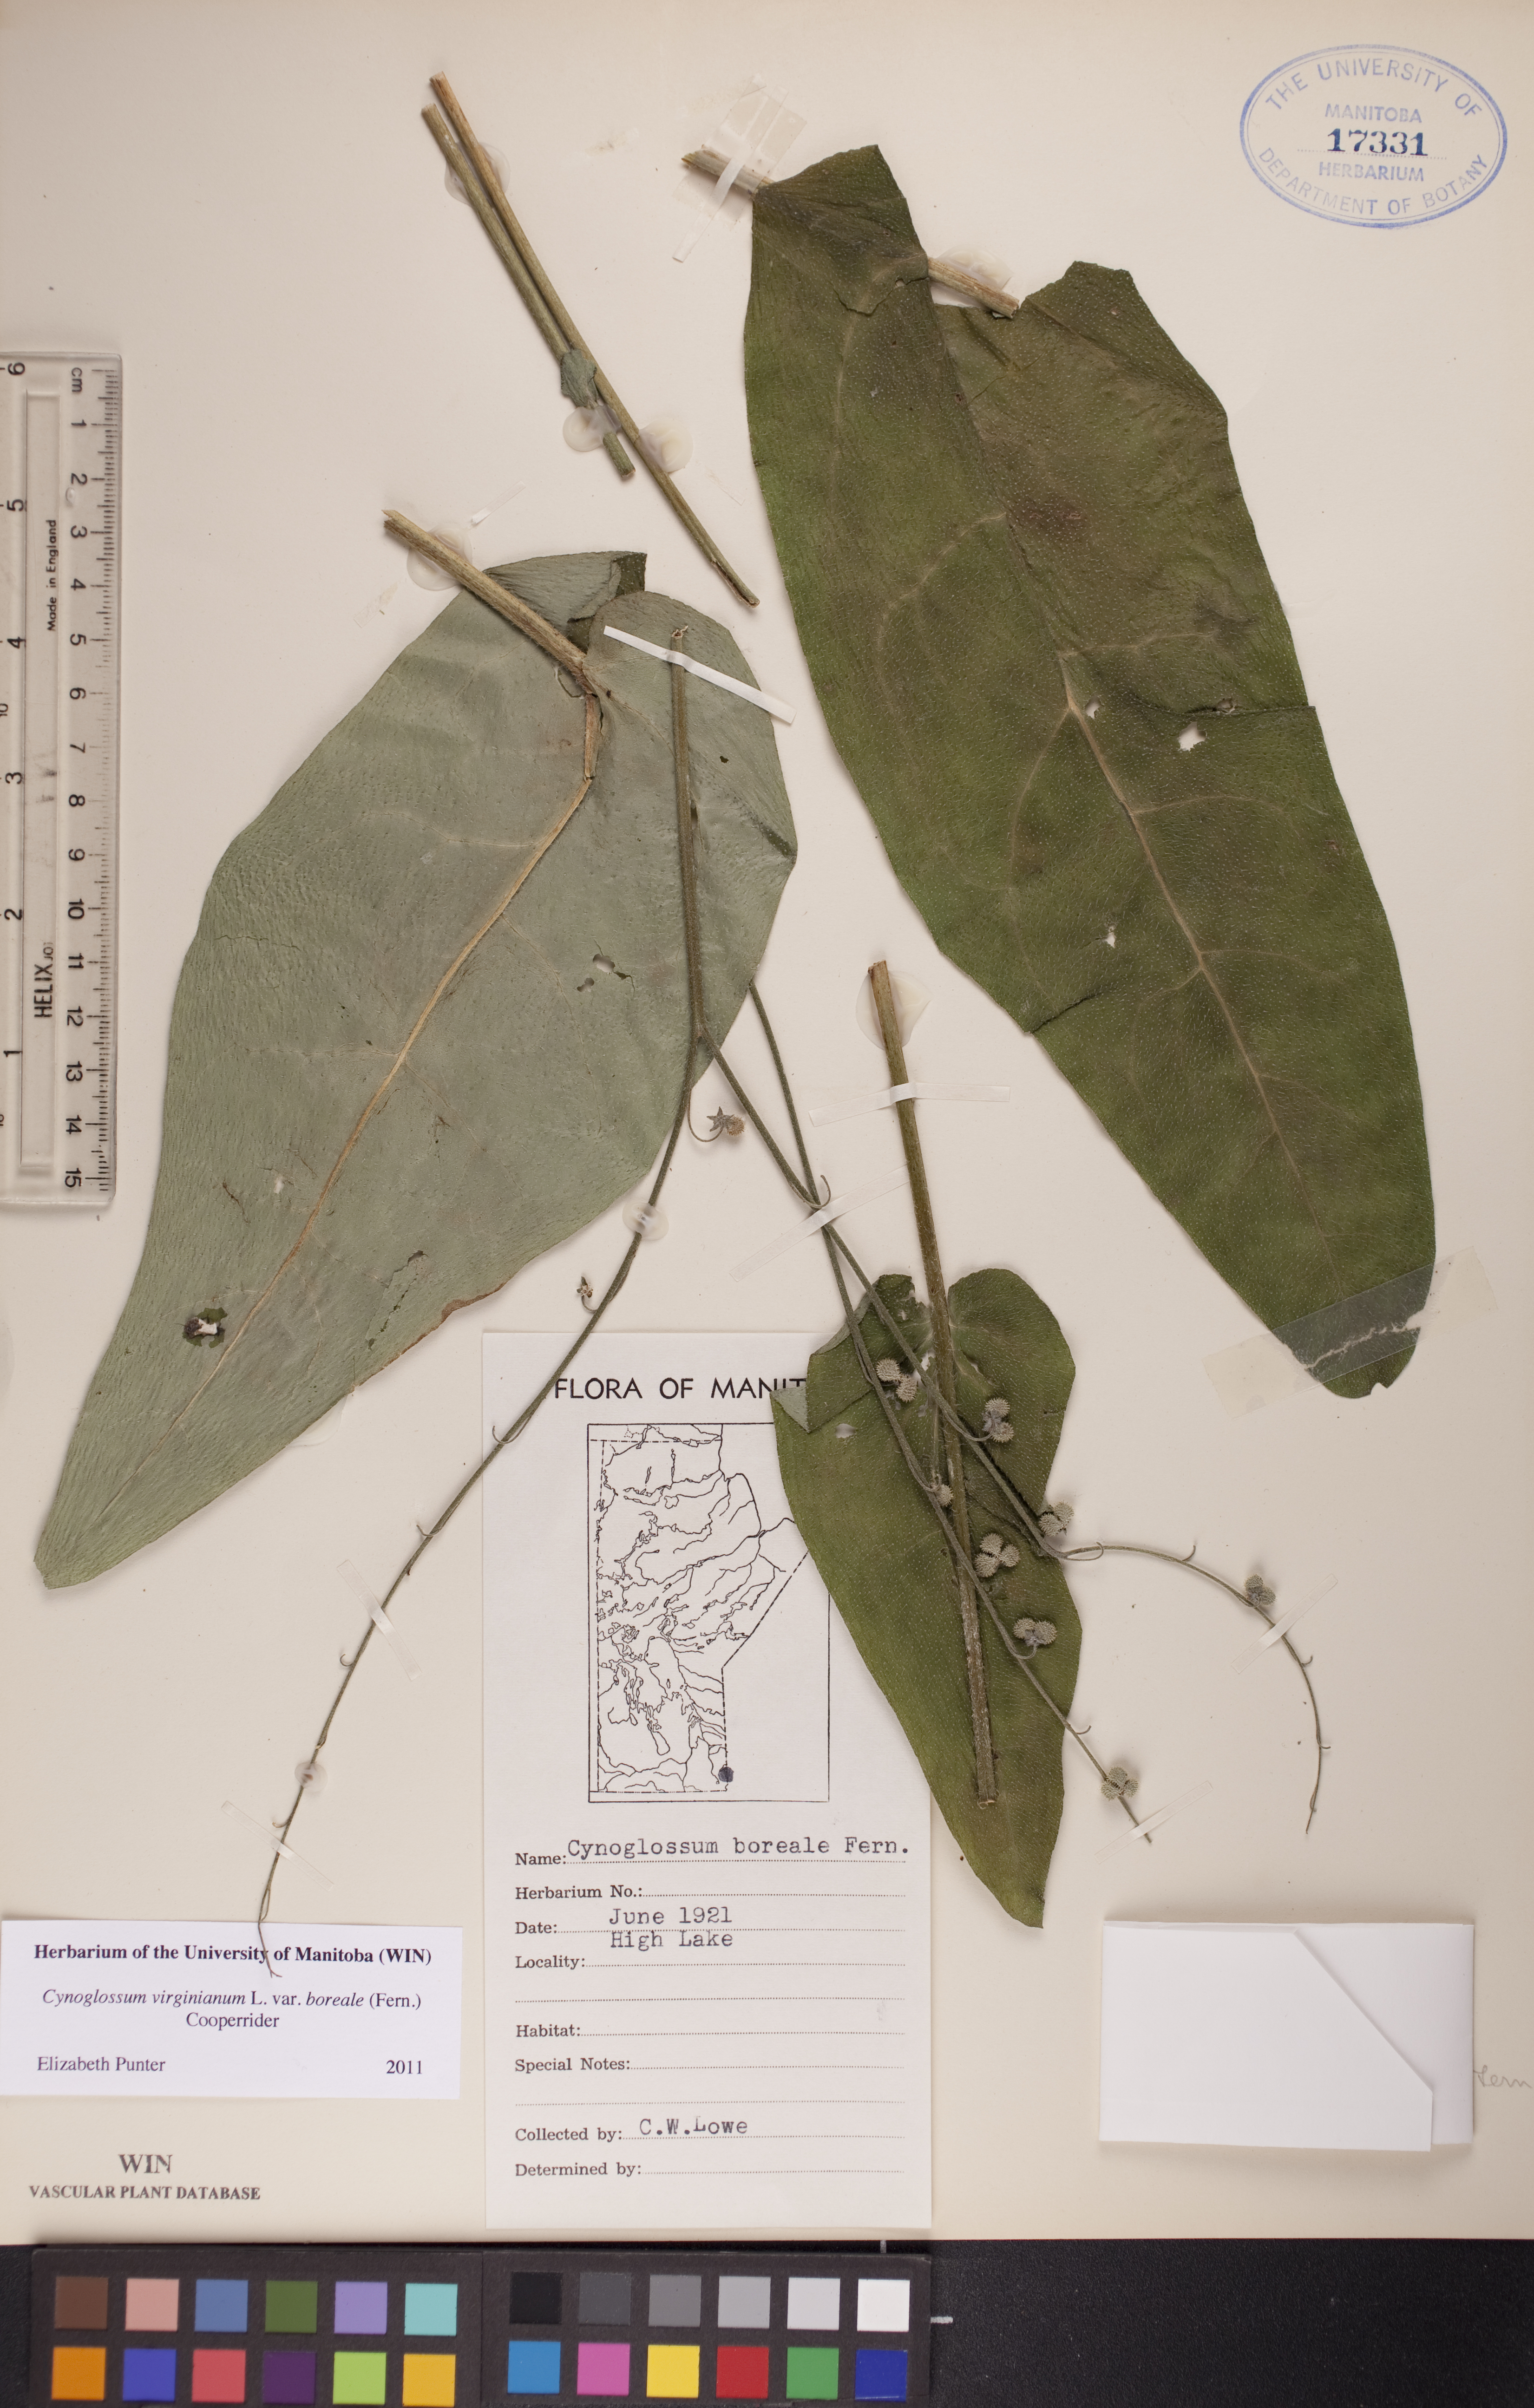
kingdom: Plantae
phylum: Tracheophyta
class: Magnoliopsida
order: Boraginales
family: Boraginaceae
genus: Andersonglossum
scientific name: Andersonglossum boreale
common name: Northern hound's-tongue
